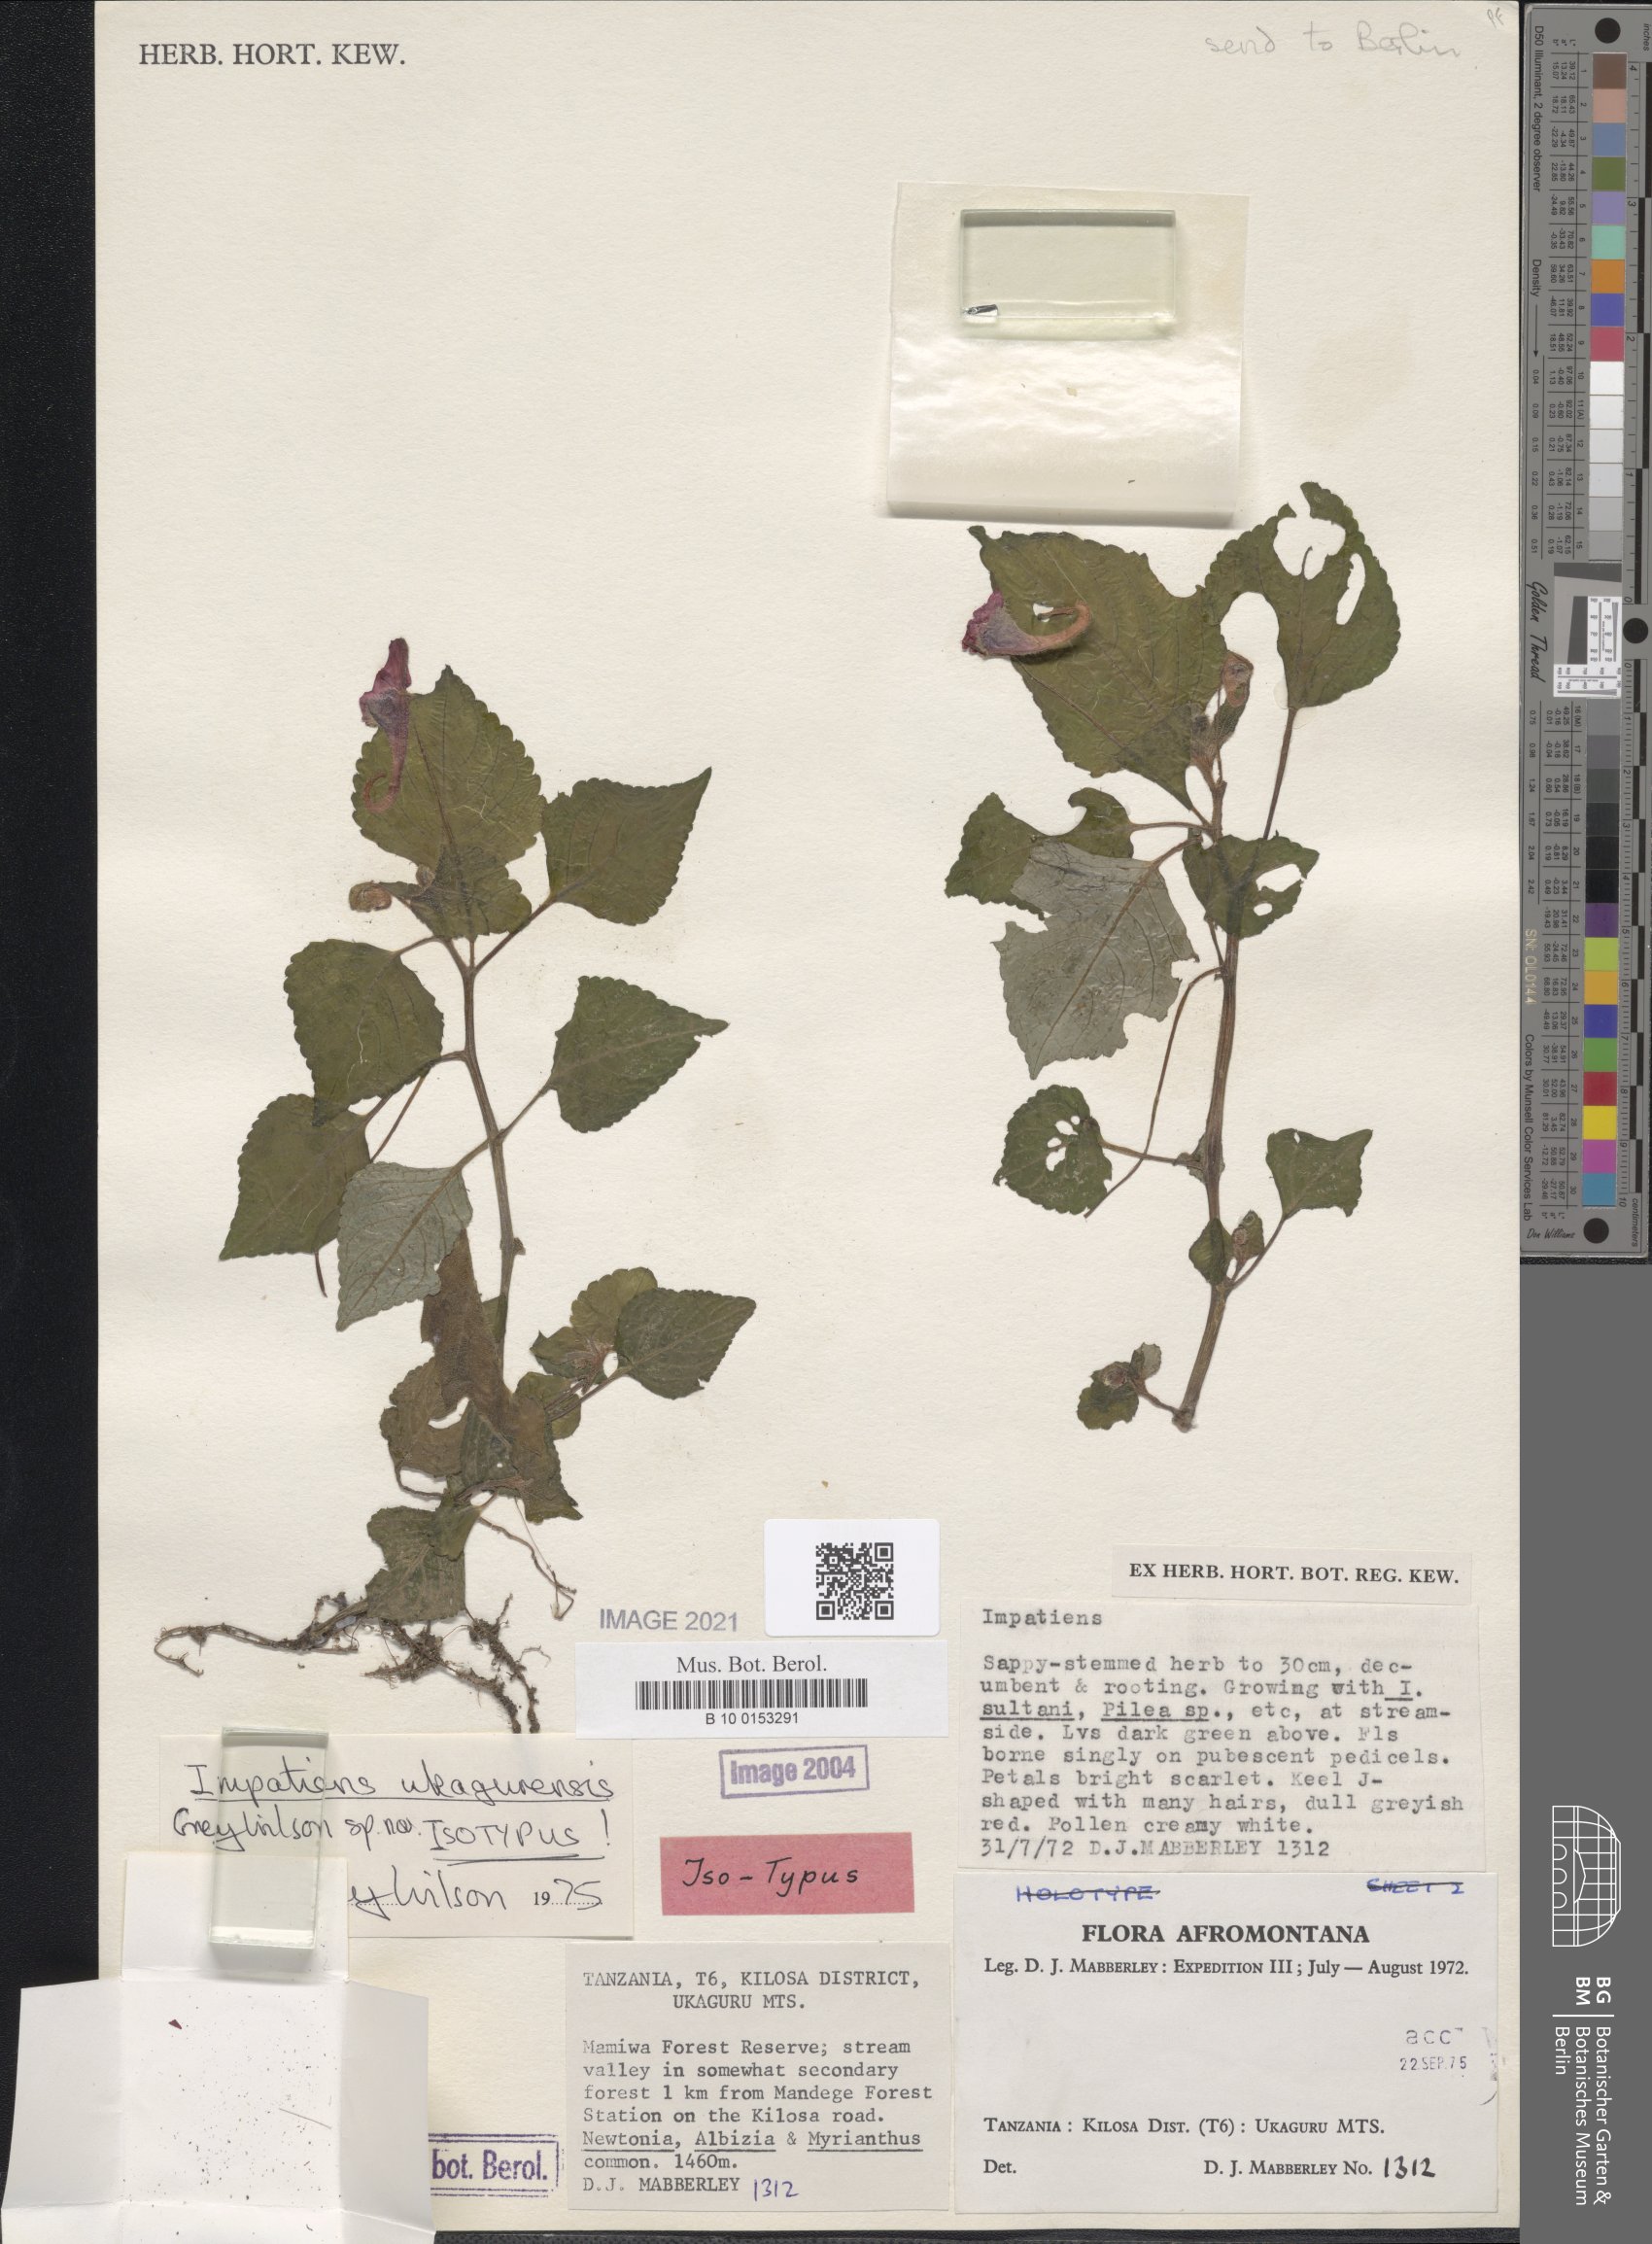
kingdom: Plantae
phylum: Tracheophyta
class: Magnoliopsida
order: Ericales
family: Balsaminaceae
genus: Impatiens
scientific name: Impatiens ukagurensis
